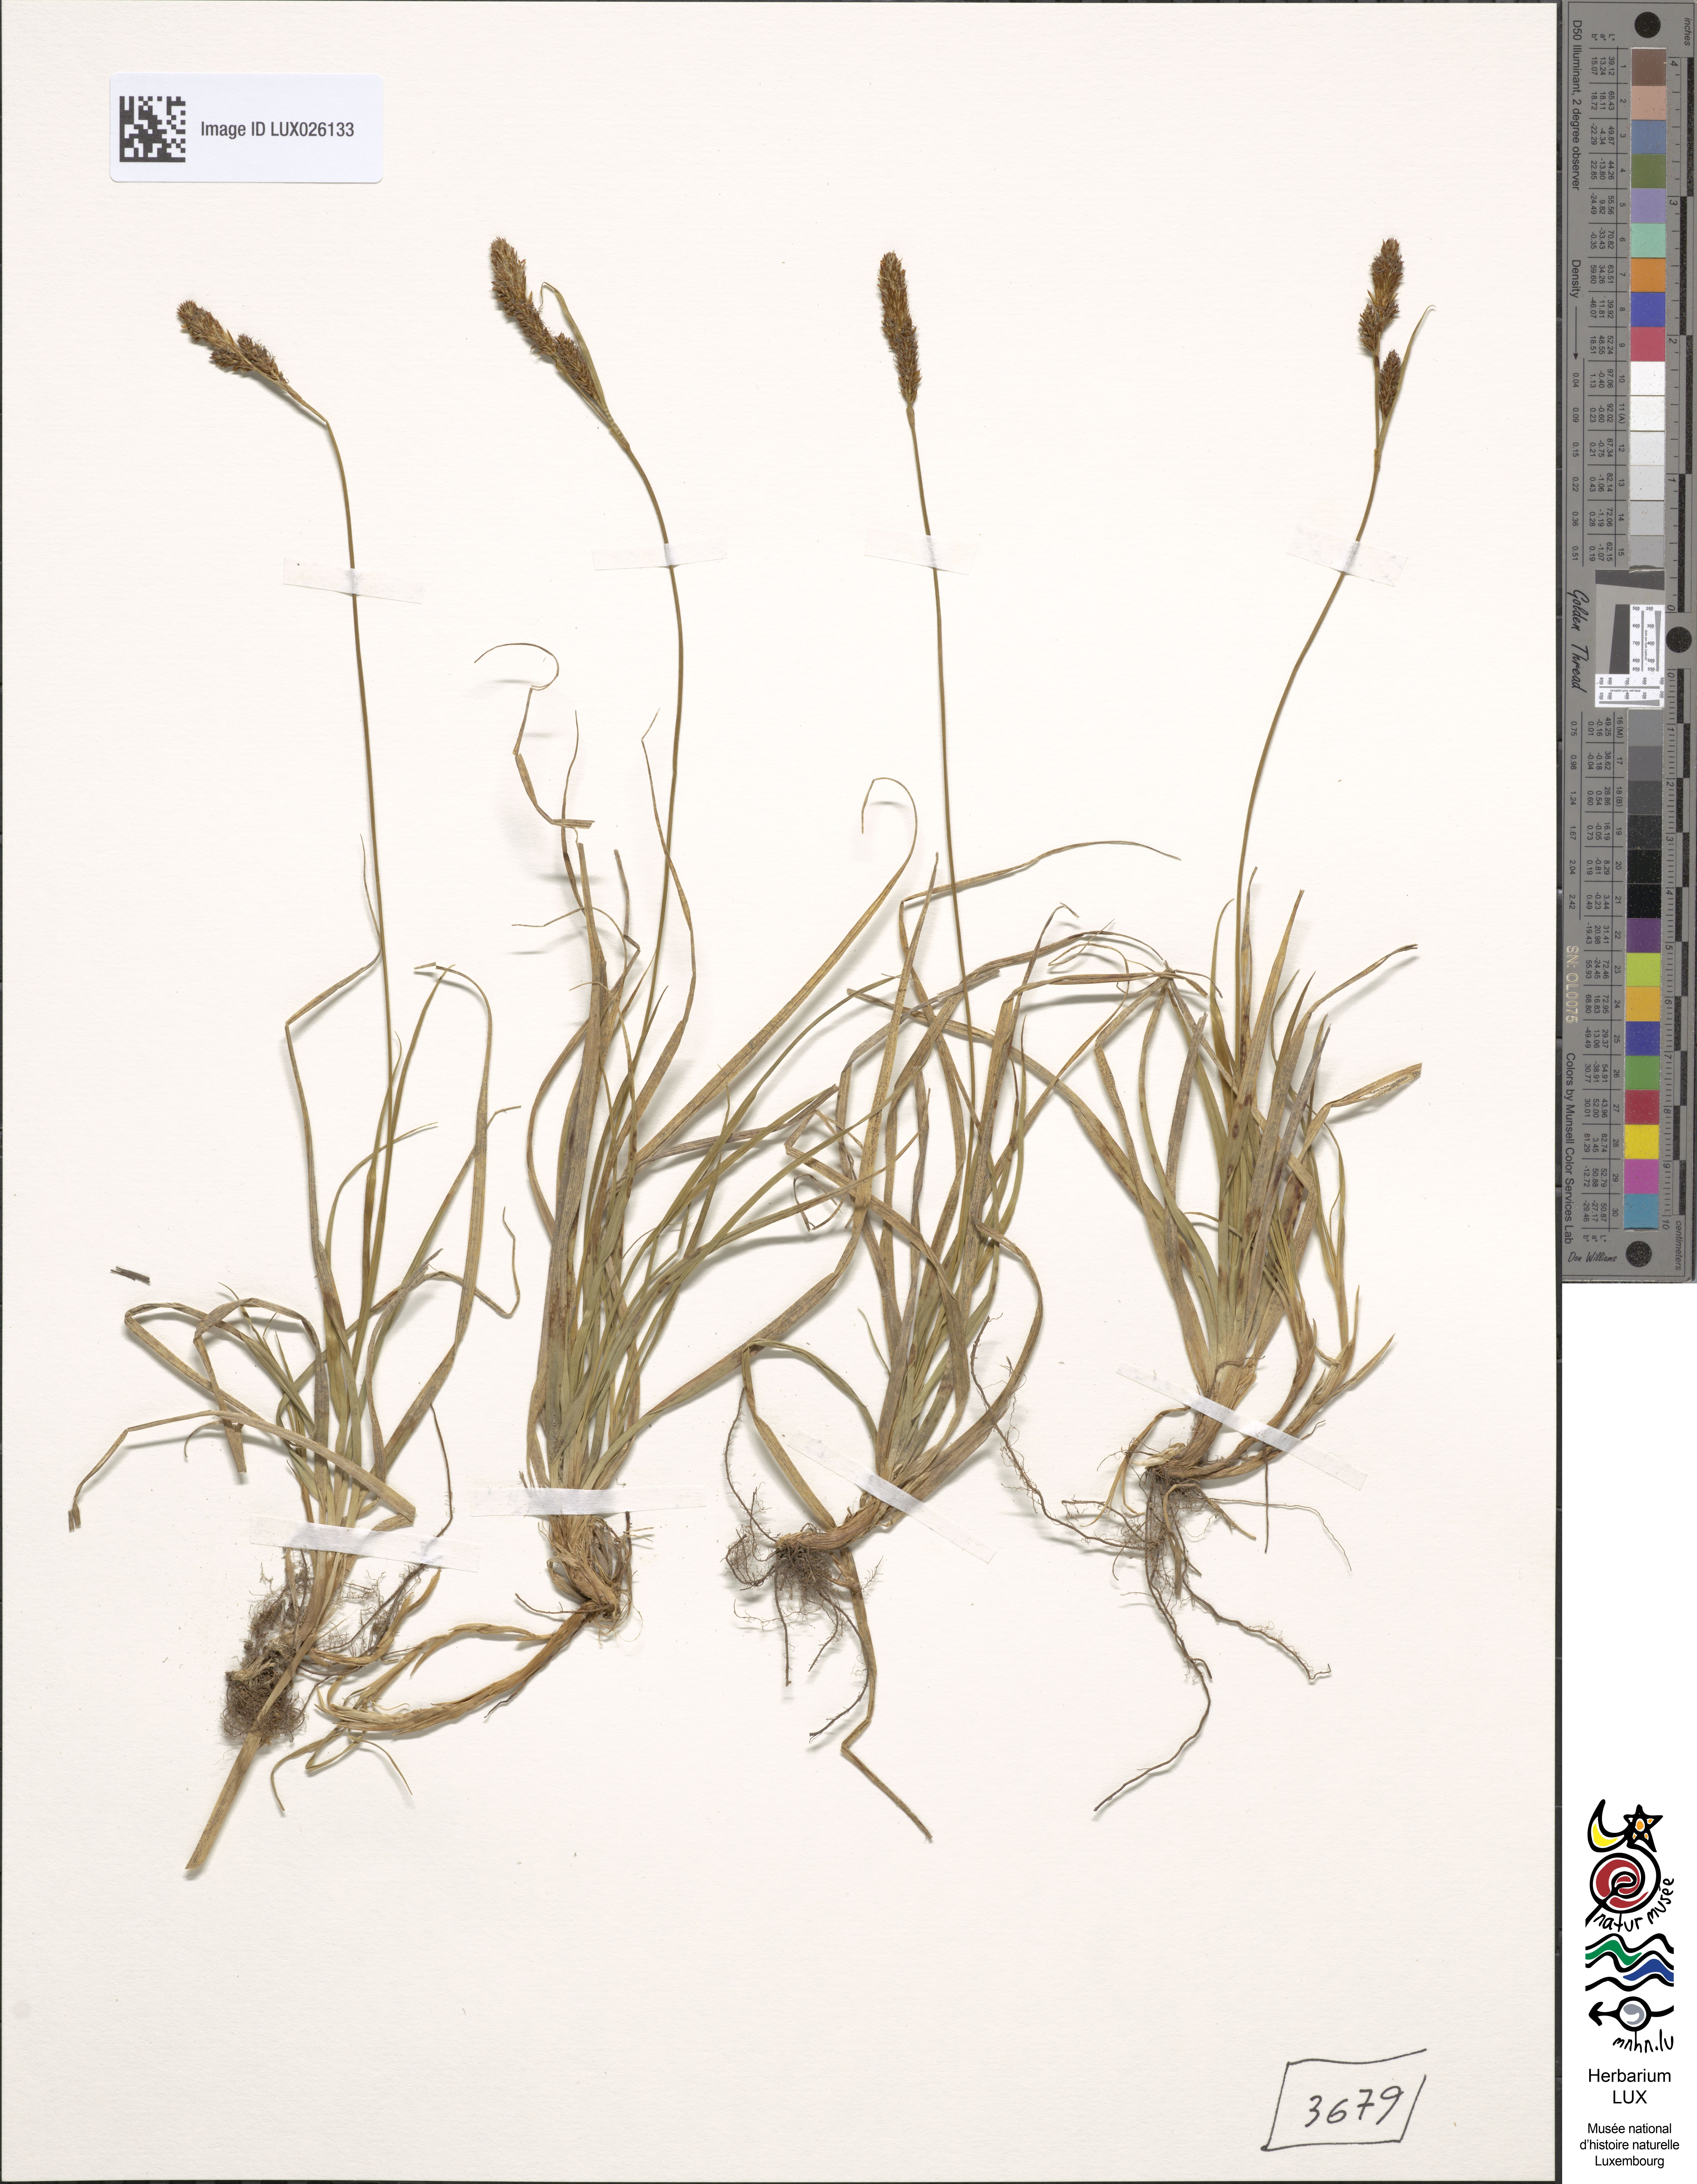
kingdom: Plantae
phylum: Tracheophyta
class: Liliopsida
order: Poales
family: Cyperaceae
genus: Carex
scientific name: Carex caryophyllea
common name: Spring sedge
